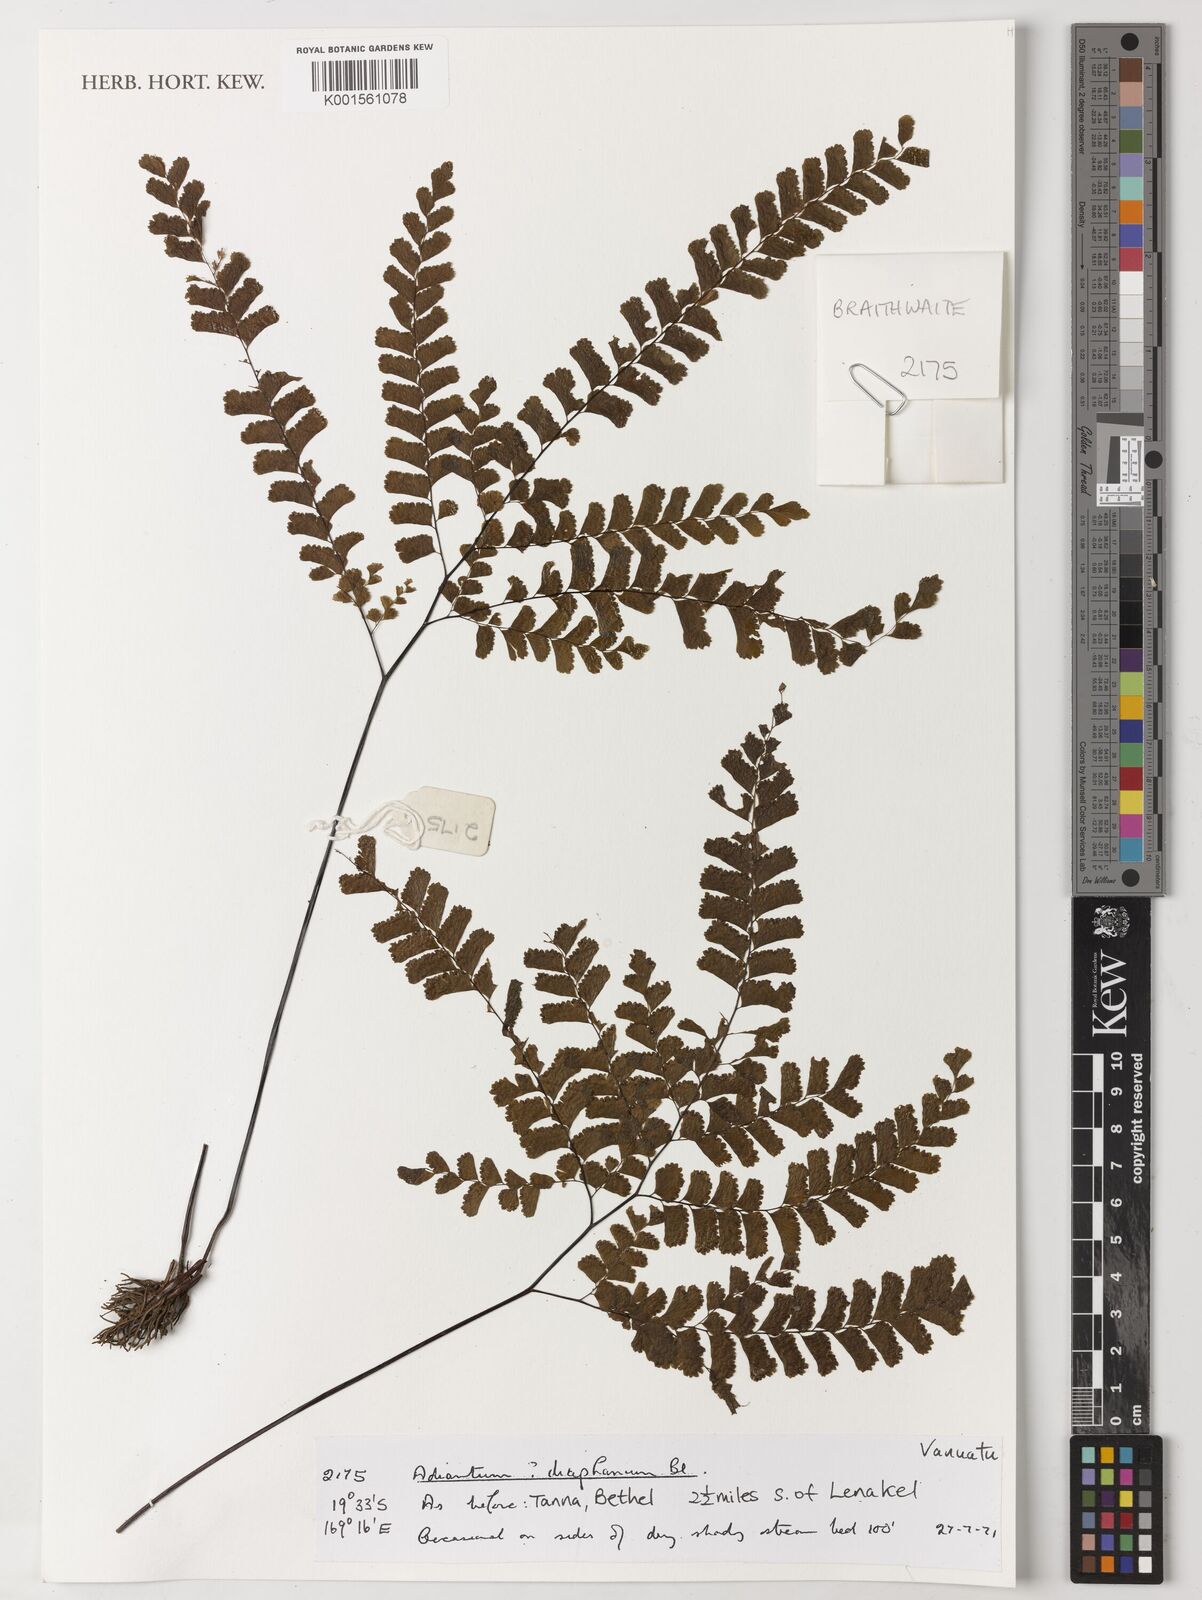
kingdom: Plantae
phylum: Tracheophyta
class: Polypodiopsida
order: Polypodiales
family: Pteridaceae
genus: Adiantum
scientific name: Adiantum diaphanum
